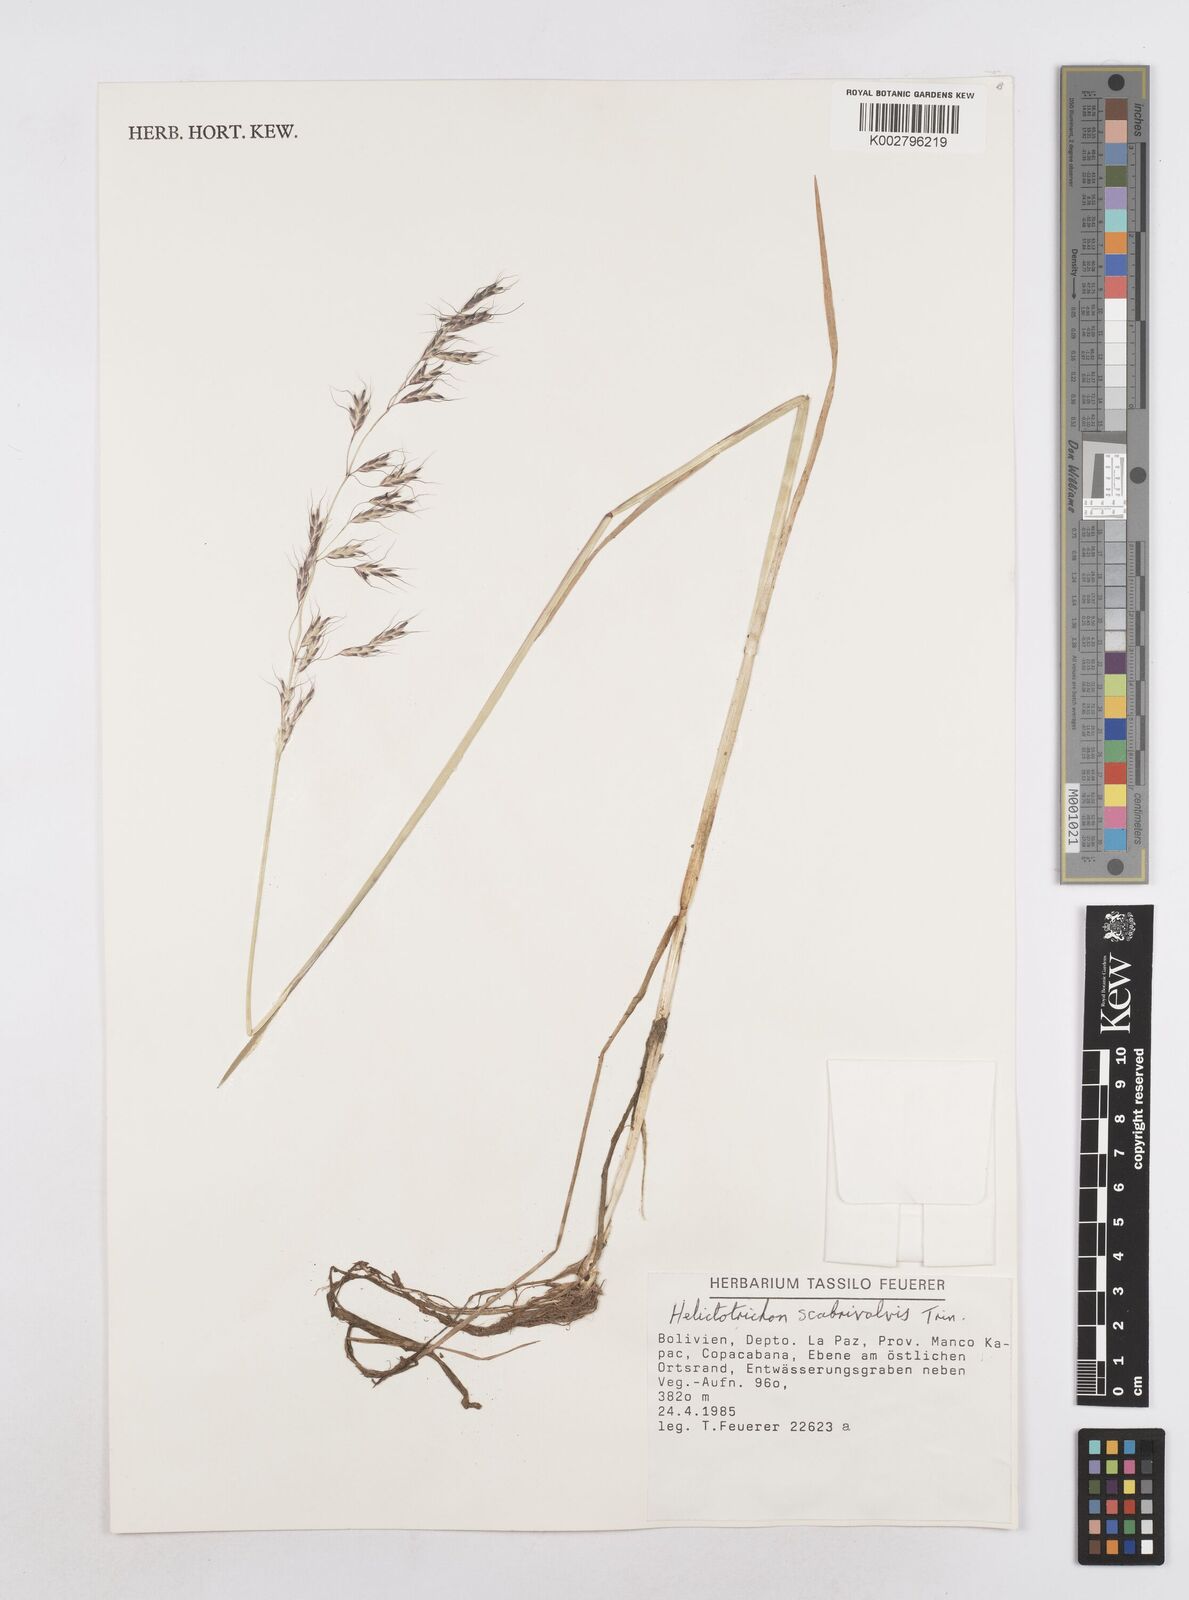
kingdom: Plantae
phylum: Tracheophyta
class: Liliopsida
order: Poales
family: Poaceae
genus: Amphibromus
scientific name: Amphibromus scabrivalvis
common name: Swamp wallaby grass
